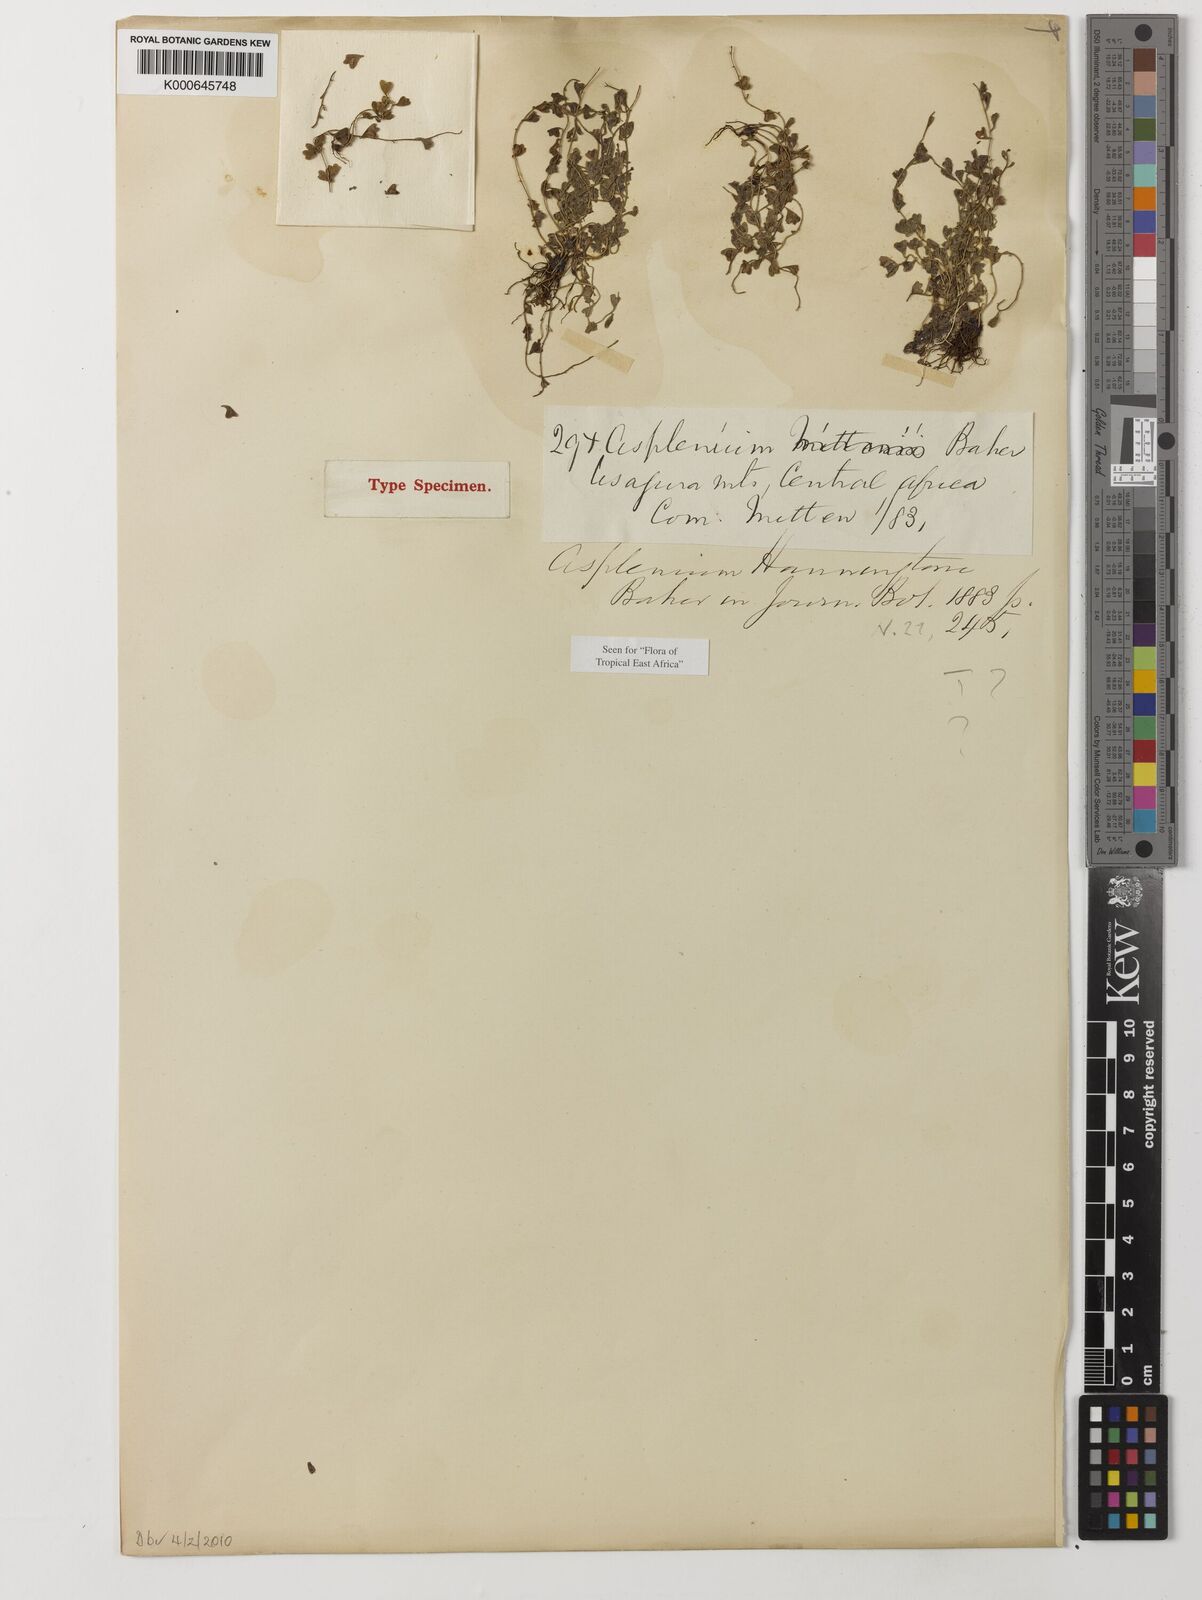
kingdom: Plantae
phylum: Tracheophyta
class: Polypodiopsida
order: Polypodiales
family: Aspleniaceae
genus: Asplenium
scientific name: Asplenium
